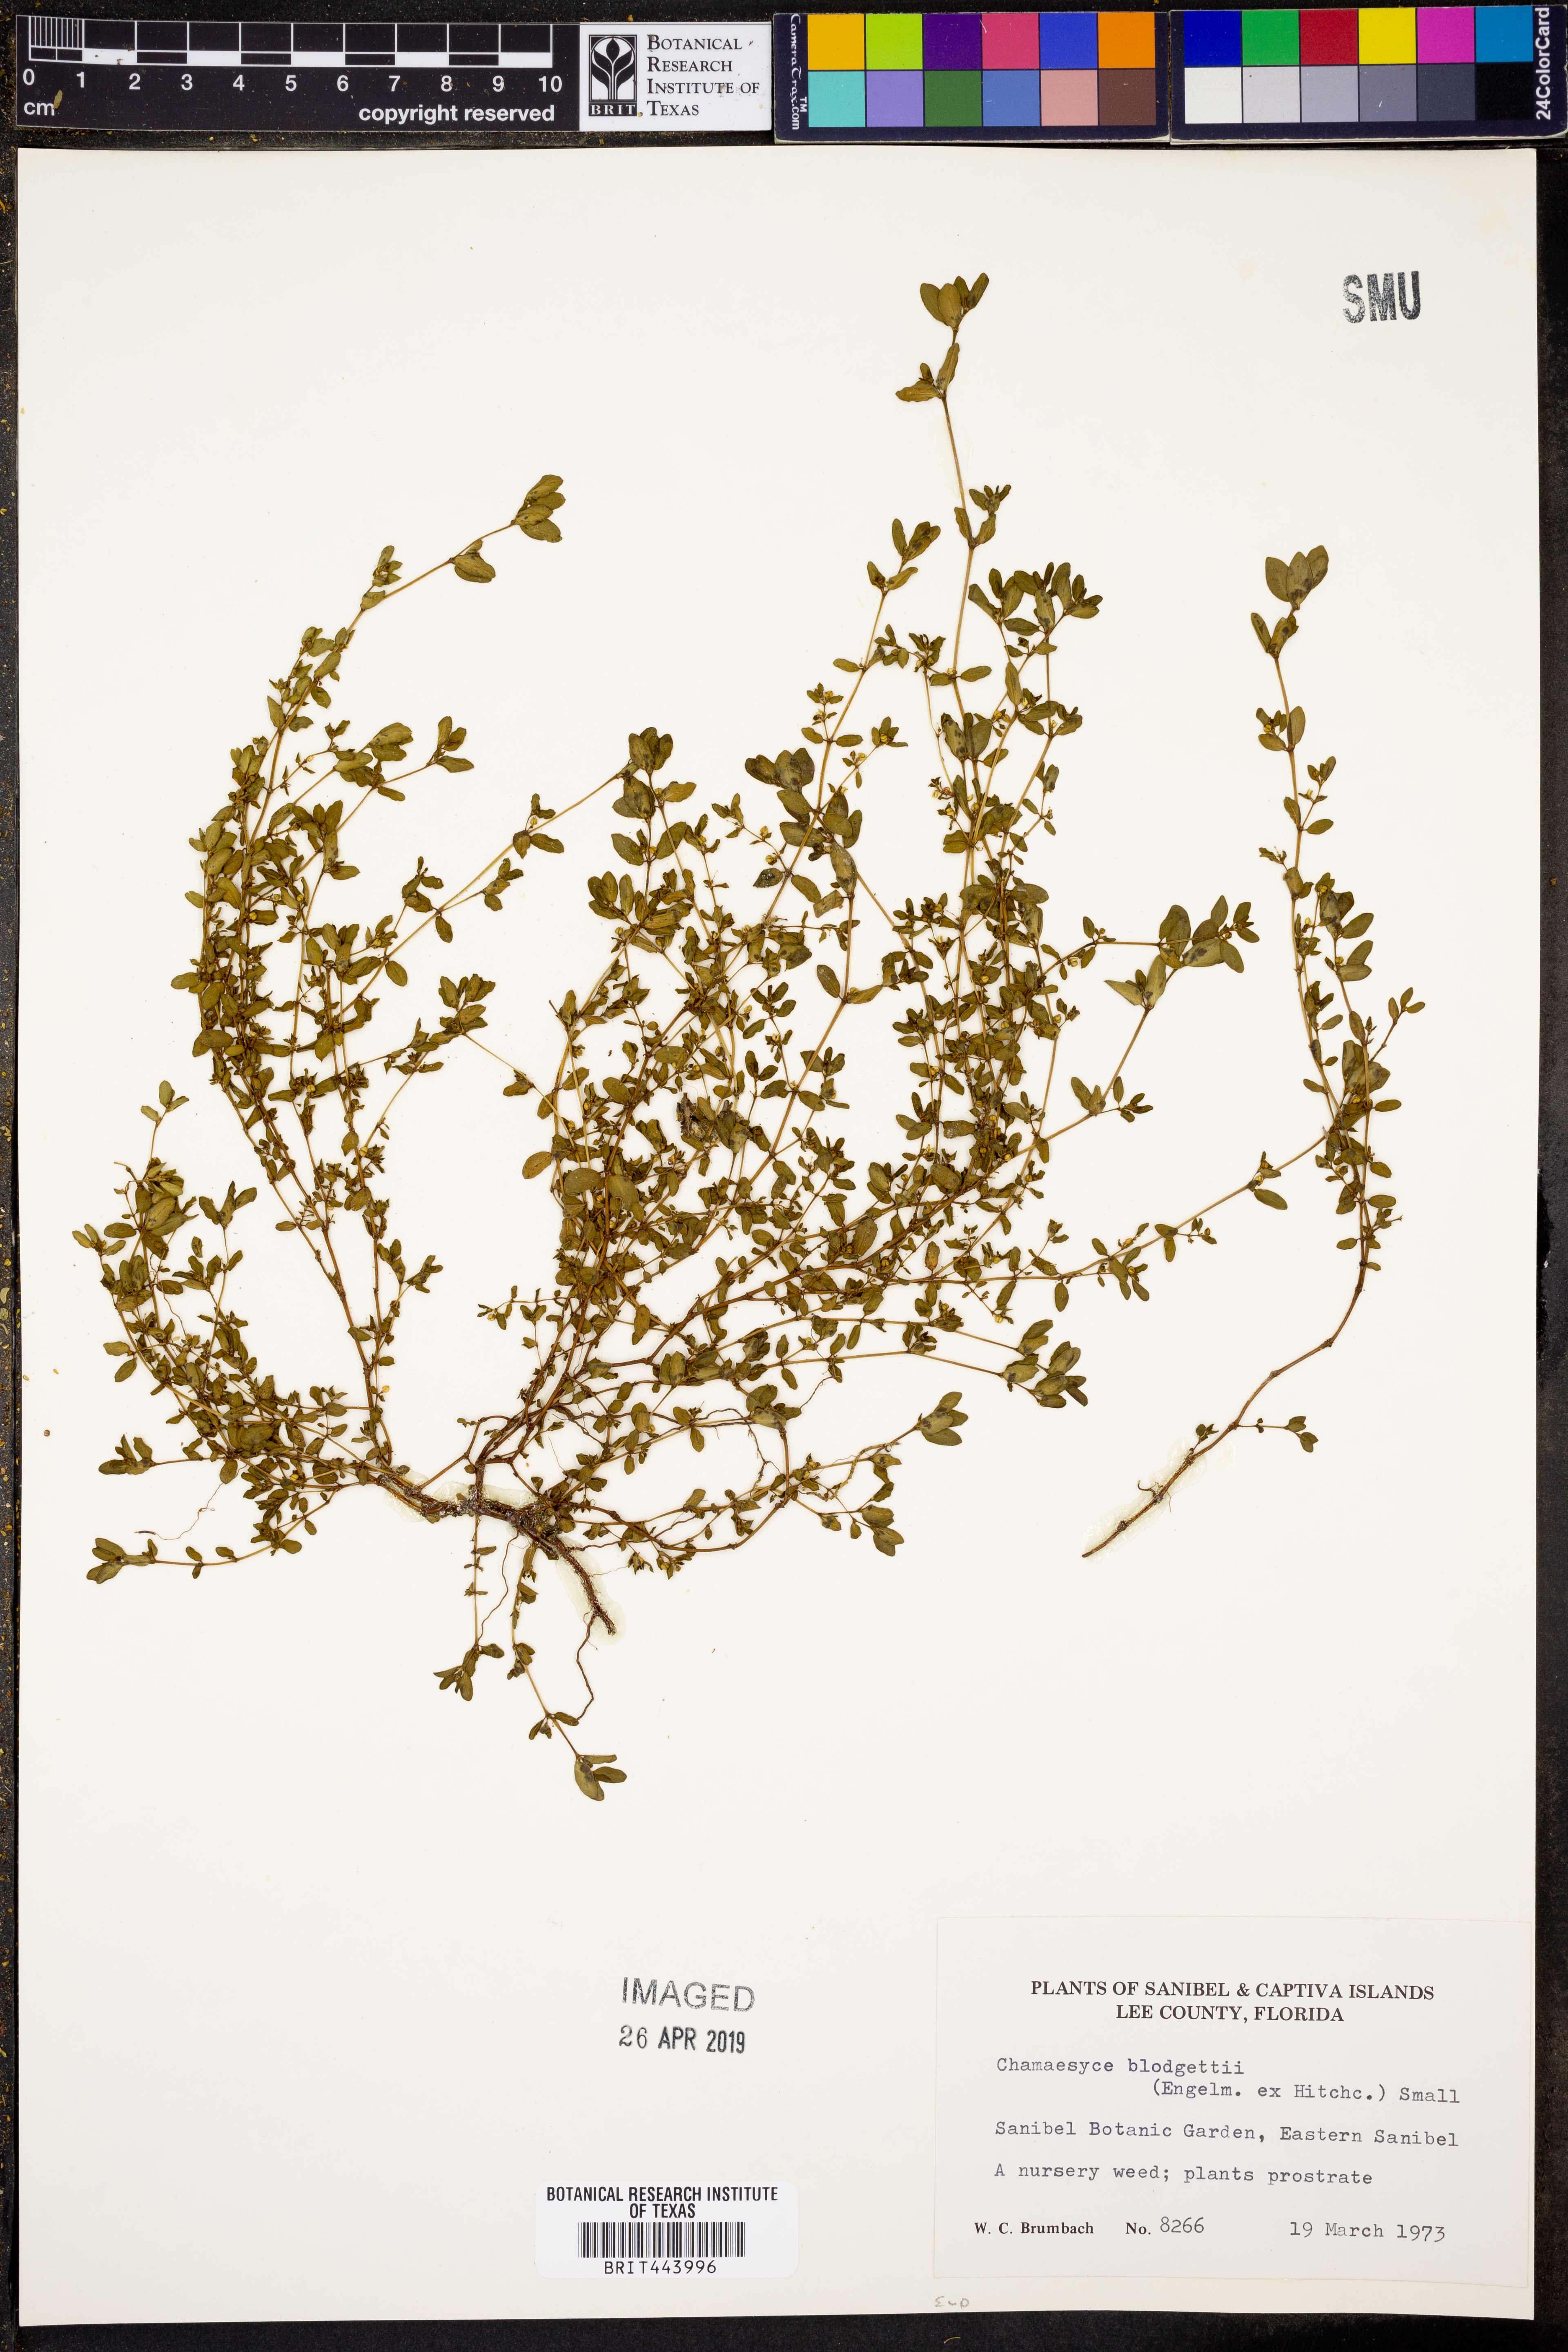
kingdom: Plantae
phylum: Tracheophyta
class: Magnoliopsida
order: Malpighiales
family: Euphorbiaceae
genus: Euphorbia
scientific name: Euphorbia blodgettii
